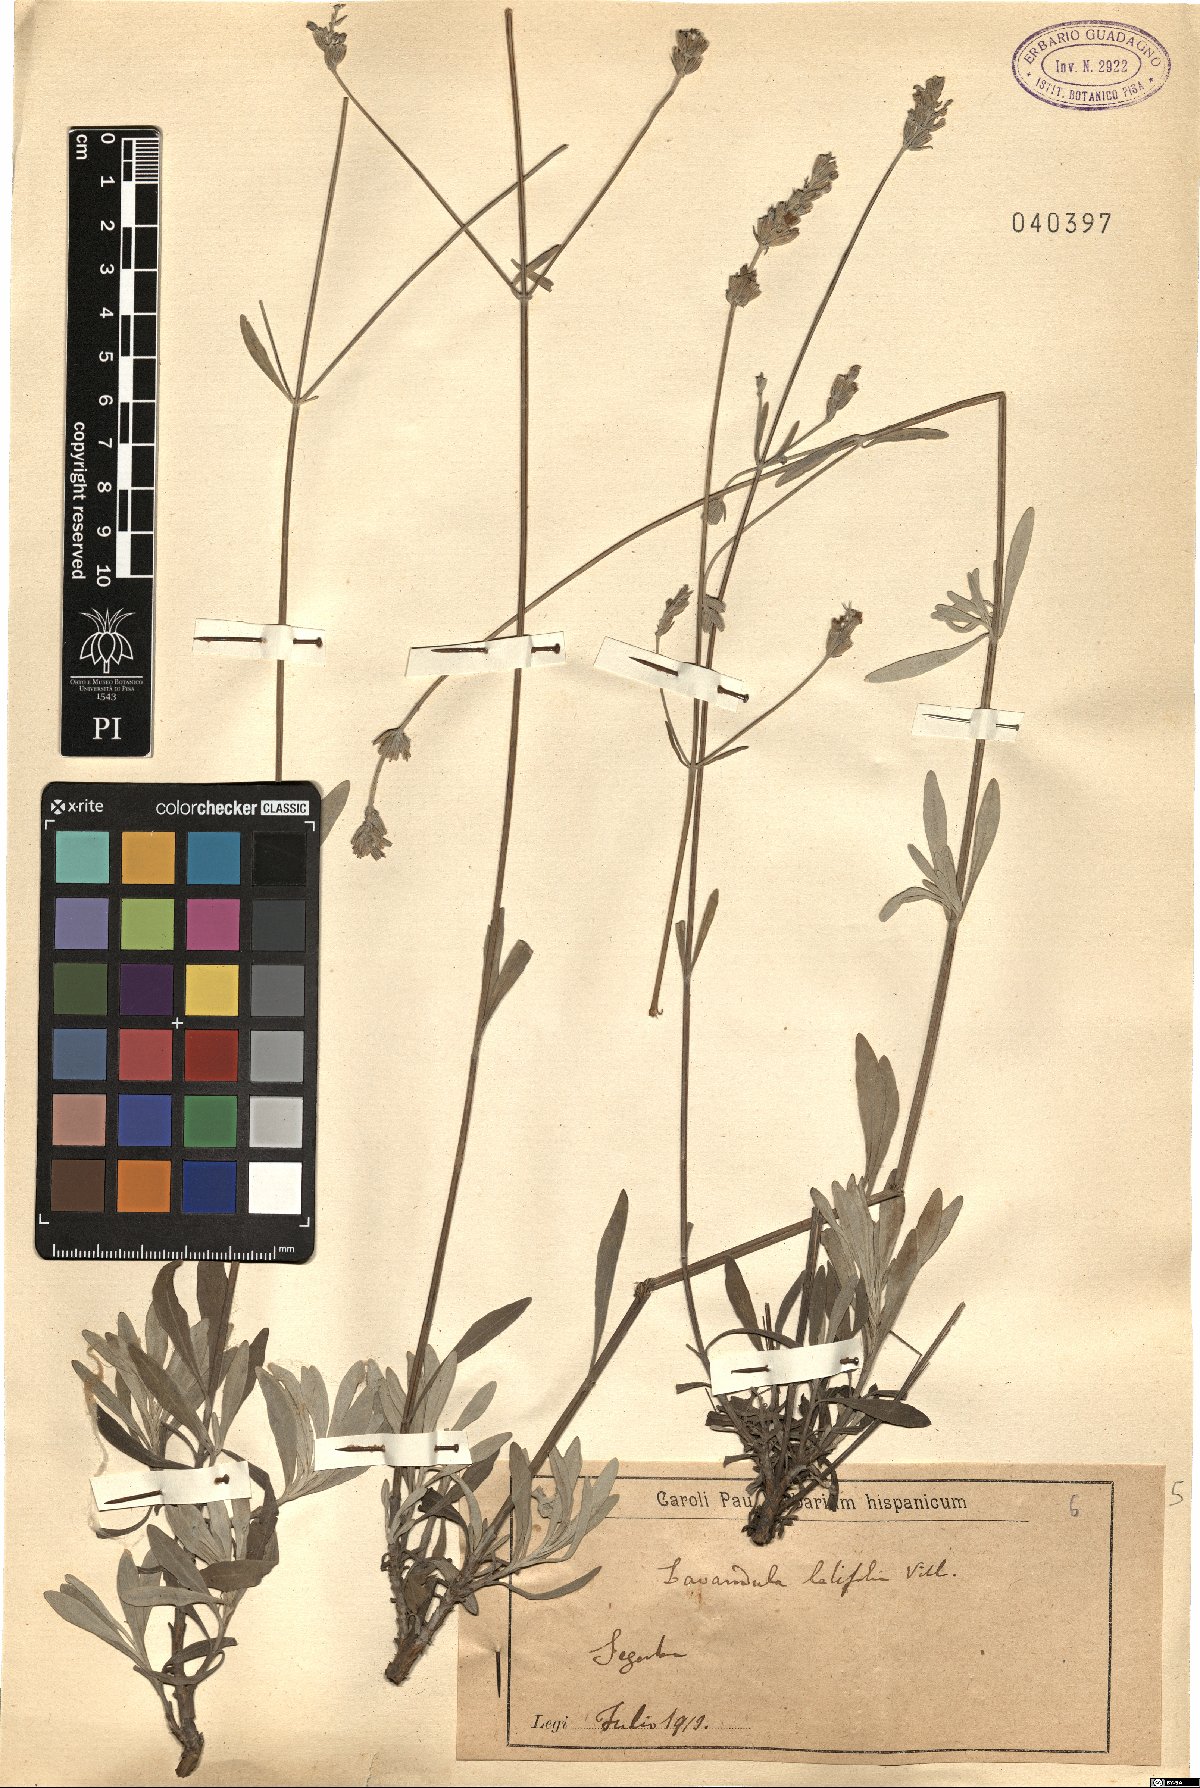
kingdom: Plantae
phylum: Tracheophyta
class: Magnoliopsida
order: Lamiales
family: Lamiaceae
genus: Lavandula
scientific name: Lavandula latifolia
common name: Spike lavendar
